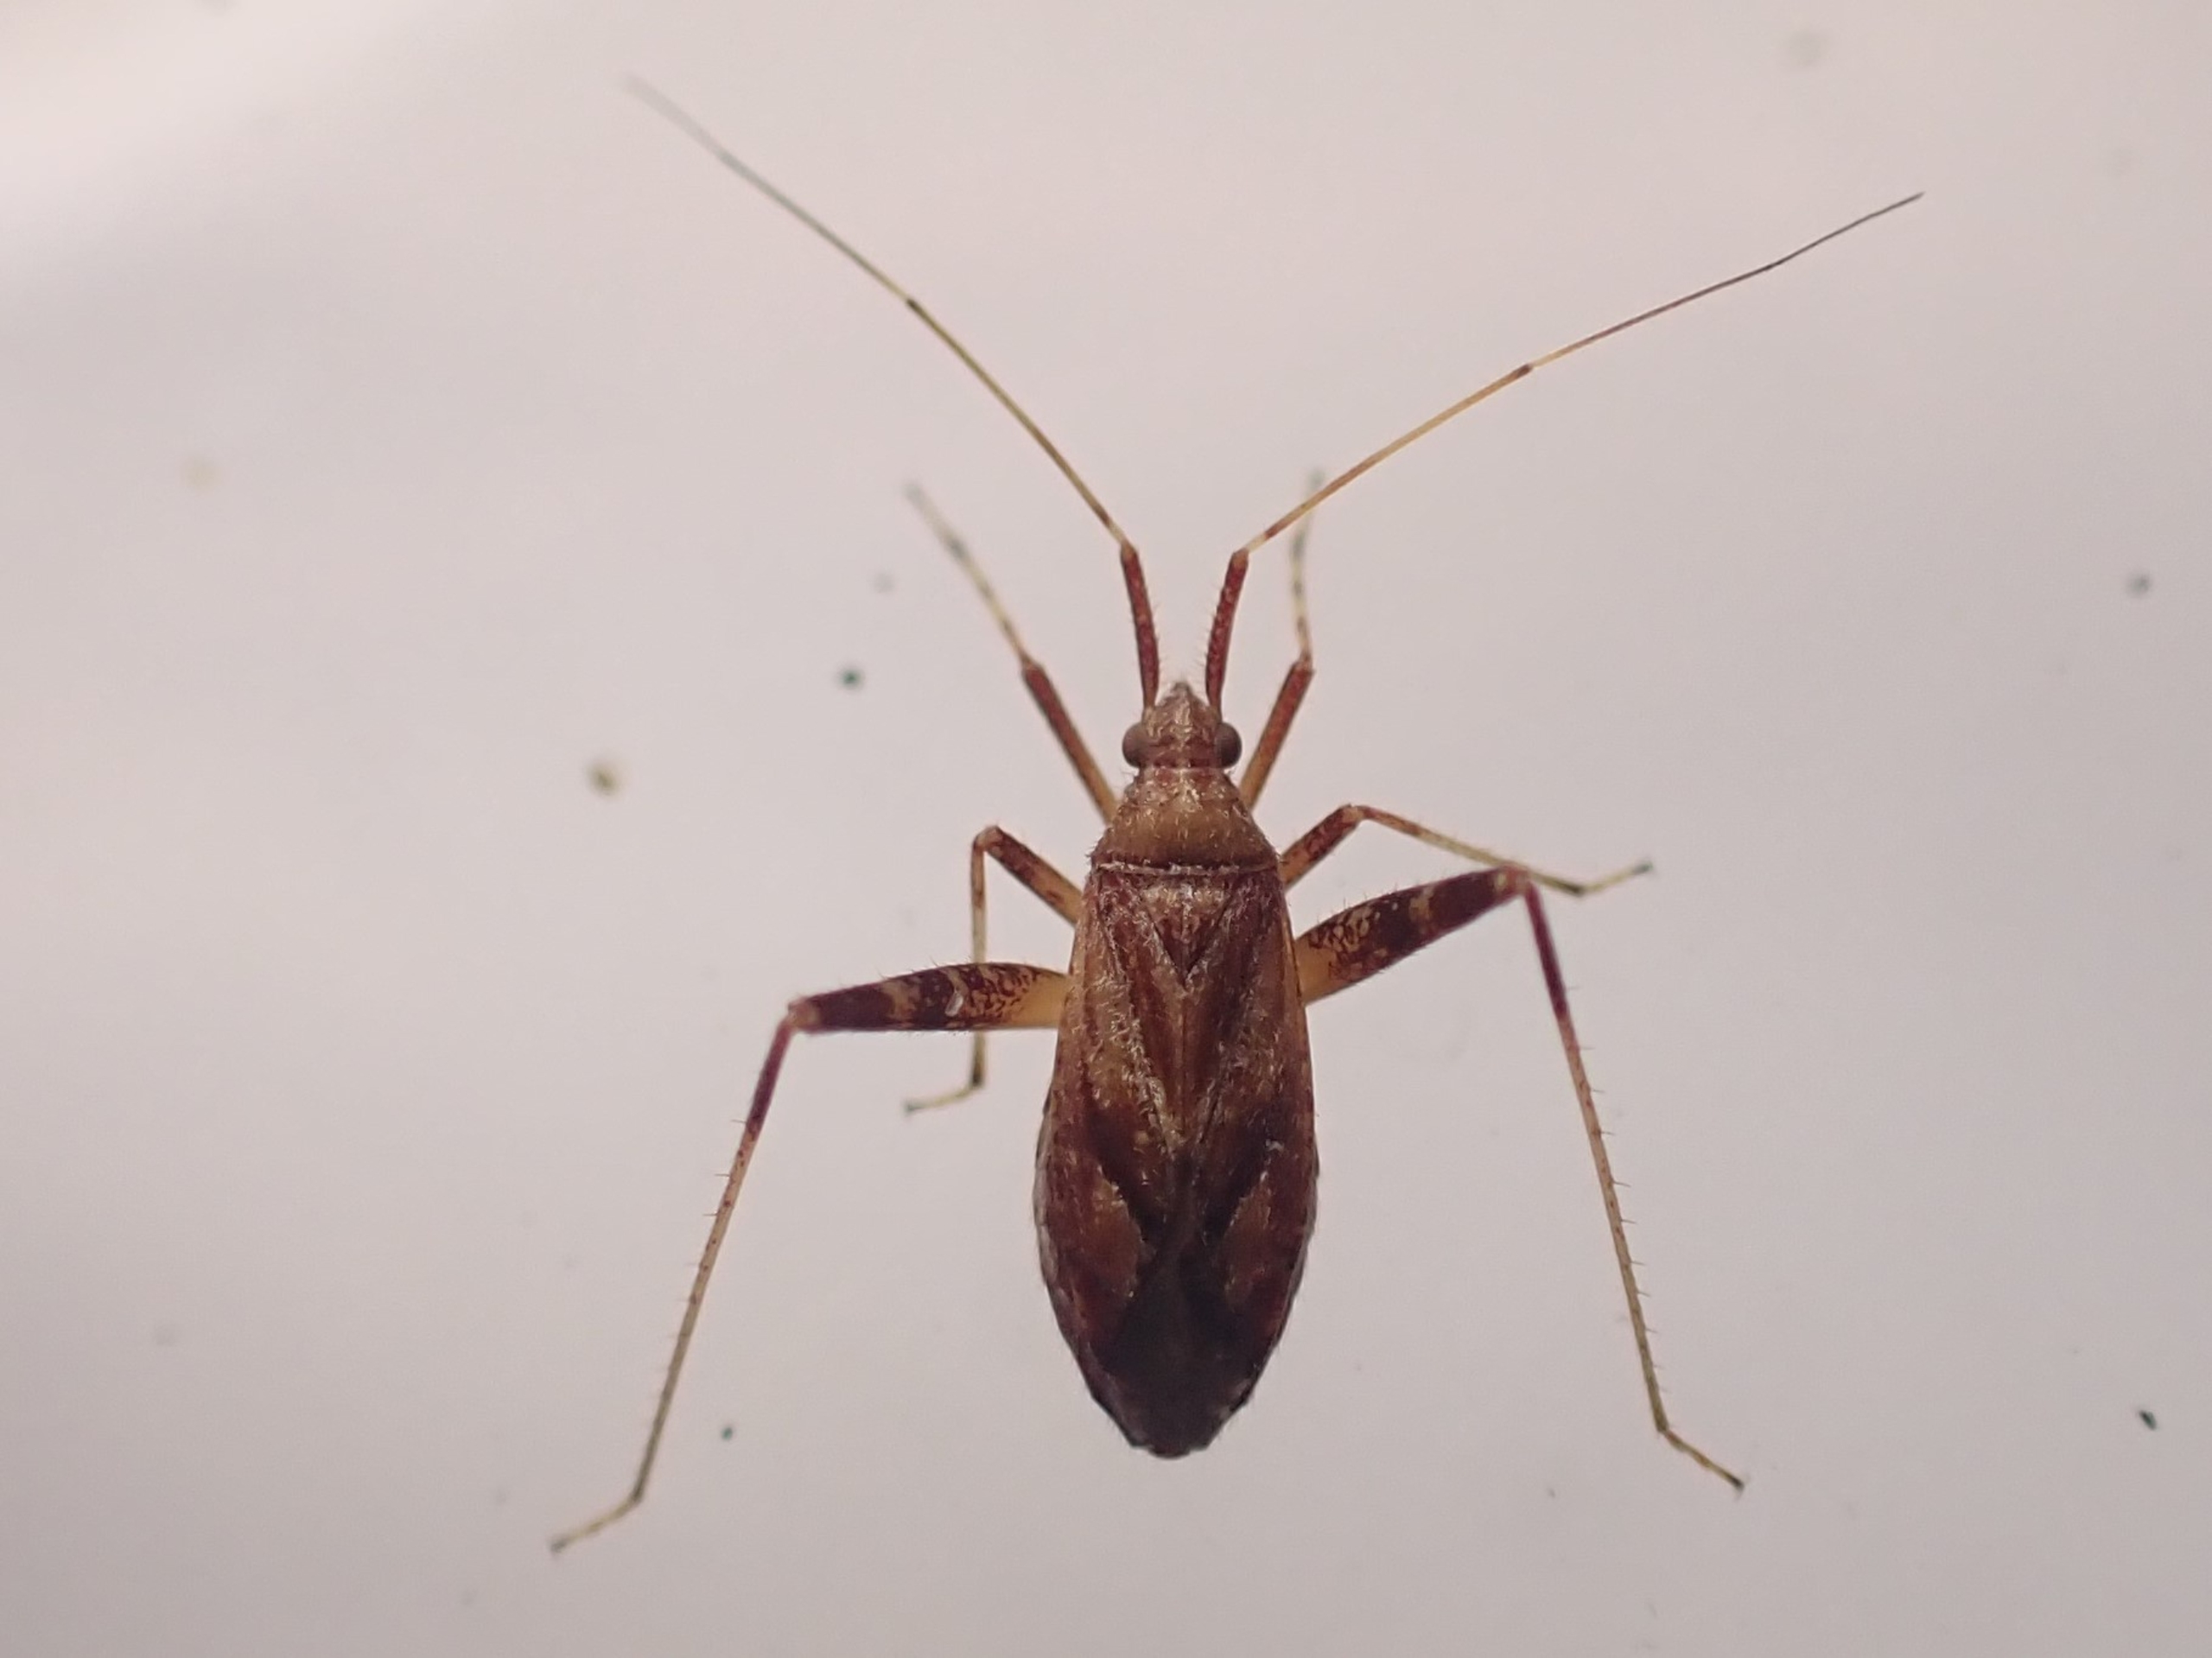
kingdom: Animalia
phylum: Arthropoda
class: Insecta
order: Hemiptera
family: Miridae
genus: Phytocoris
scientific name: Phytocoris varipes
